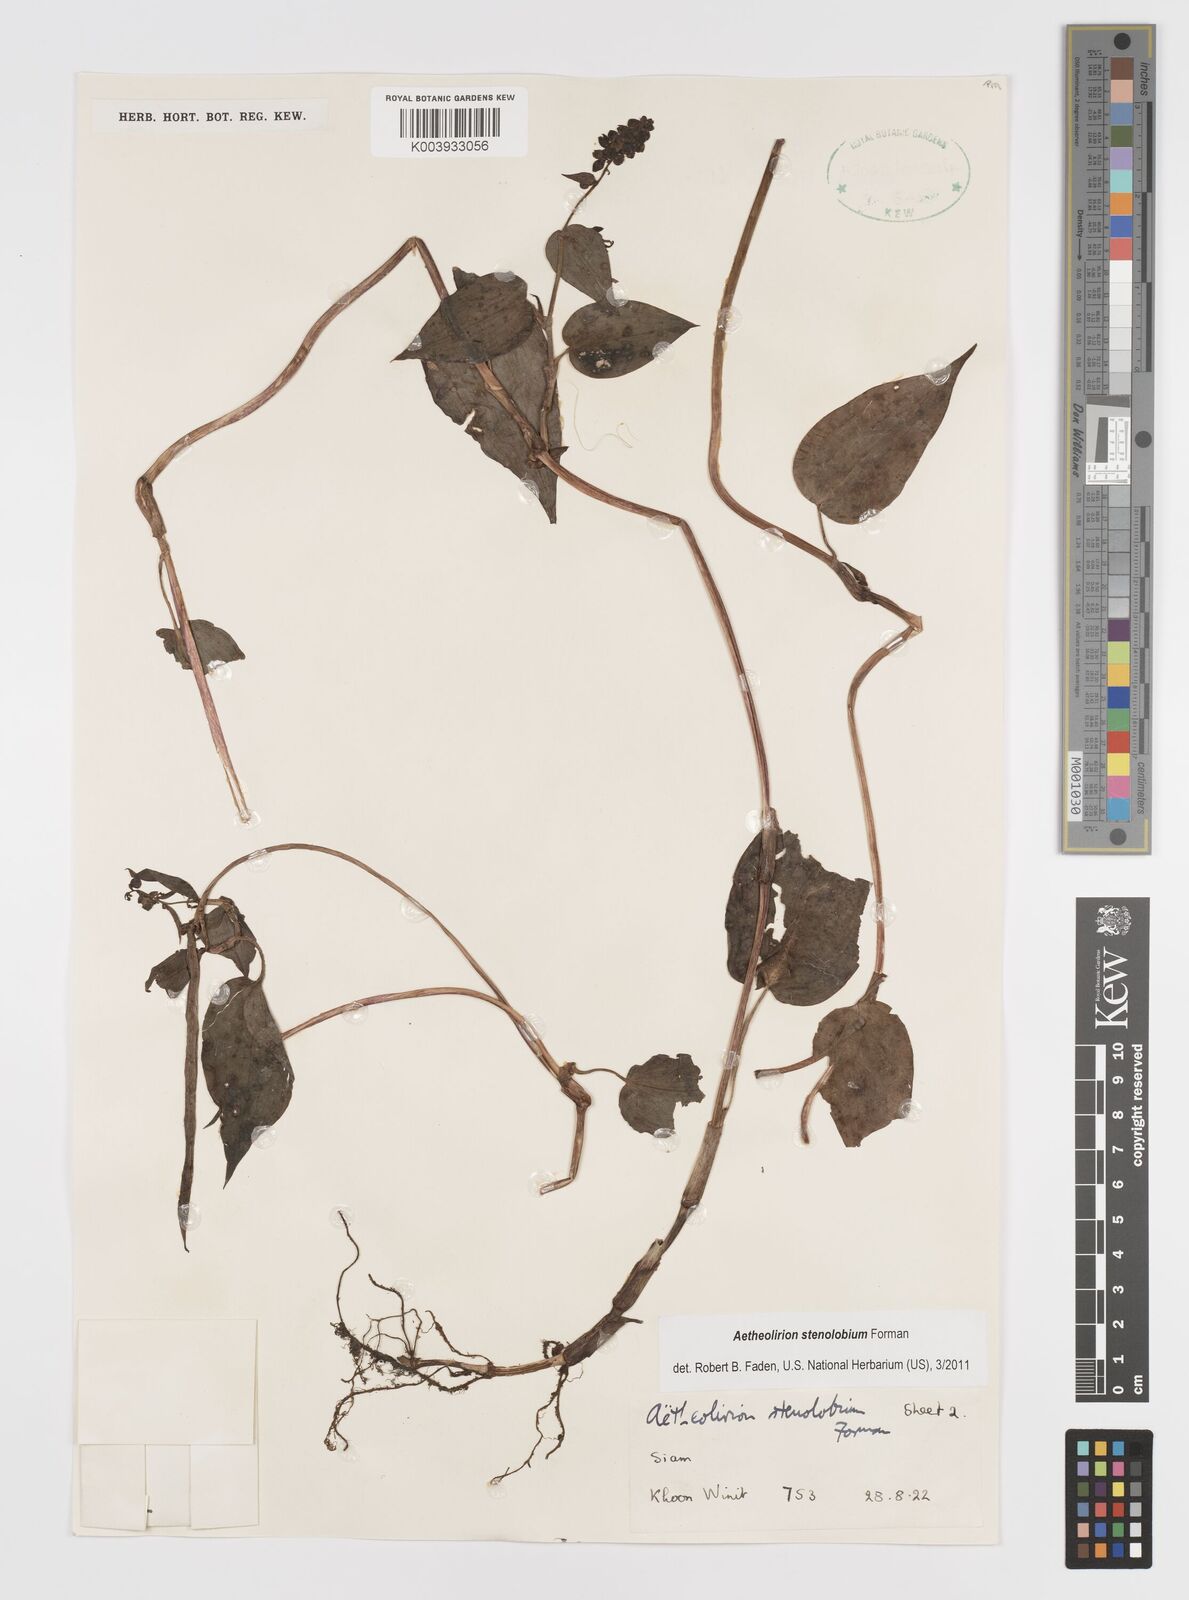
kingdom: Plantae
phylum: Tracheophyta
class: Liliopsida
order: Commelinales
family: Commelinaceae
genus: Aetheolirion
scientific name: Aetheolirion stenolobium
